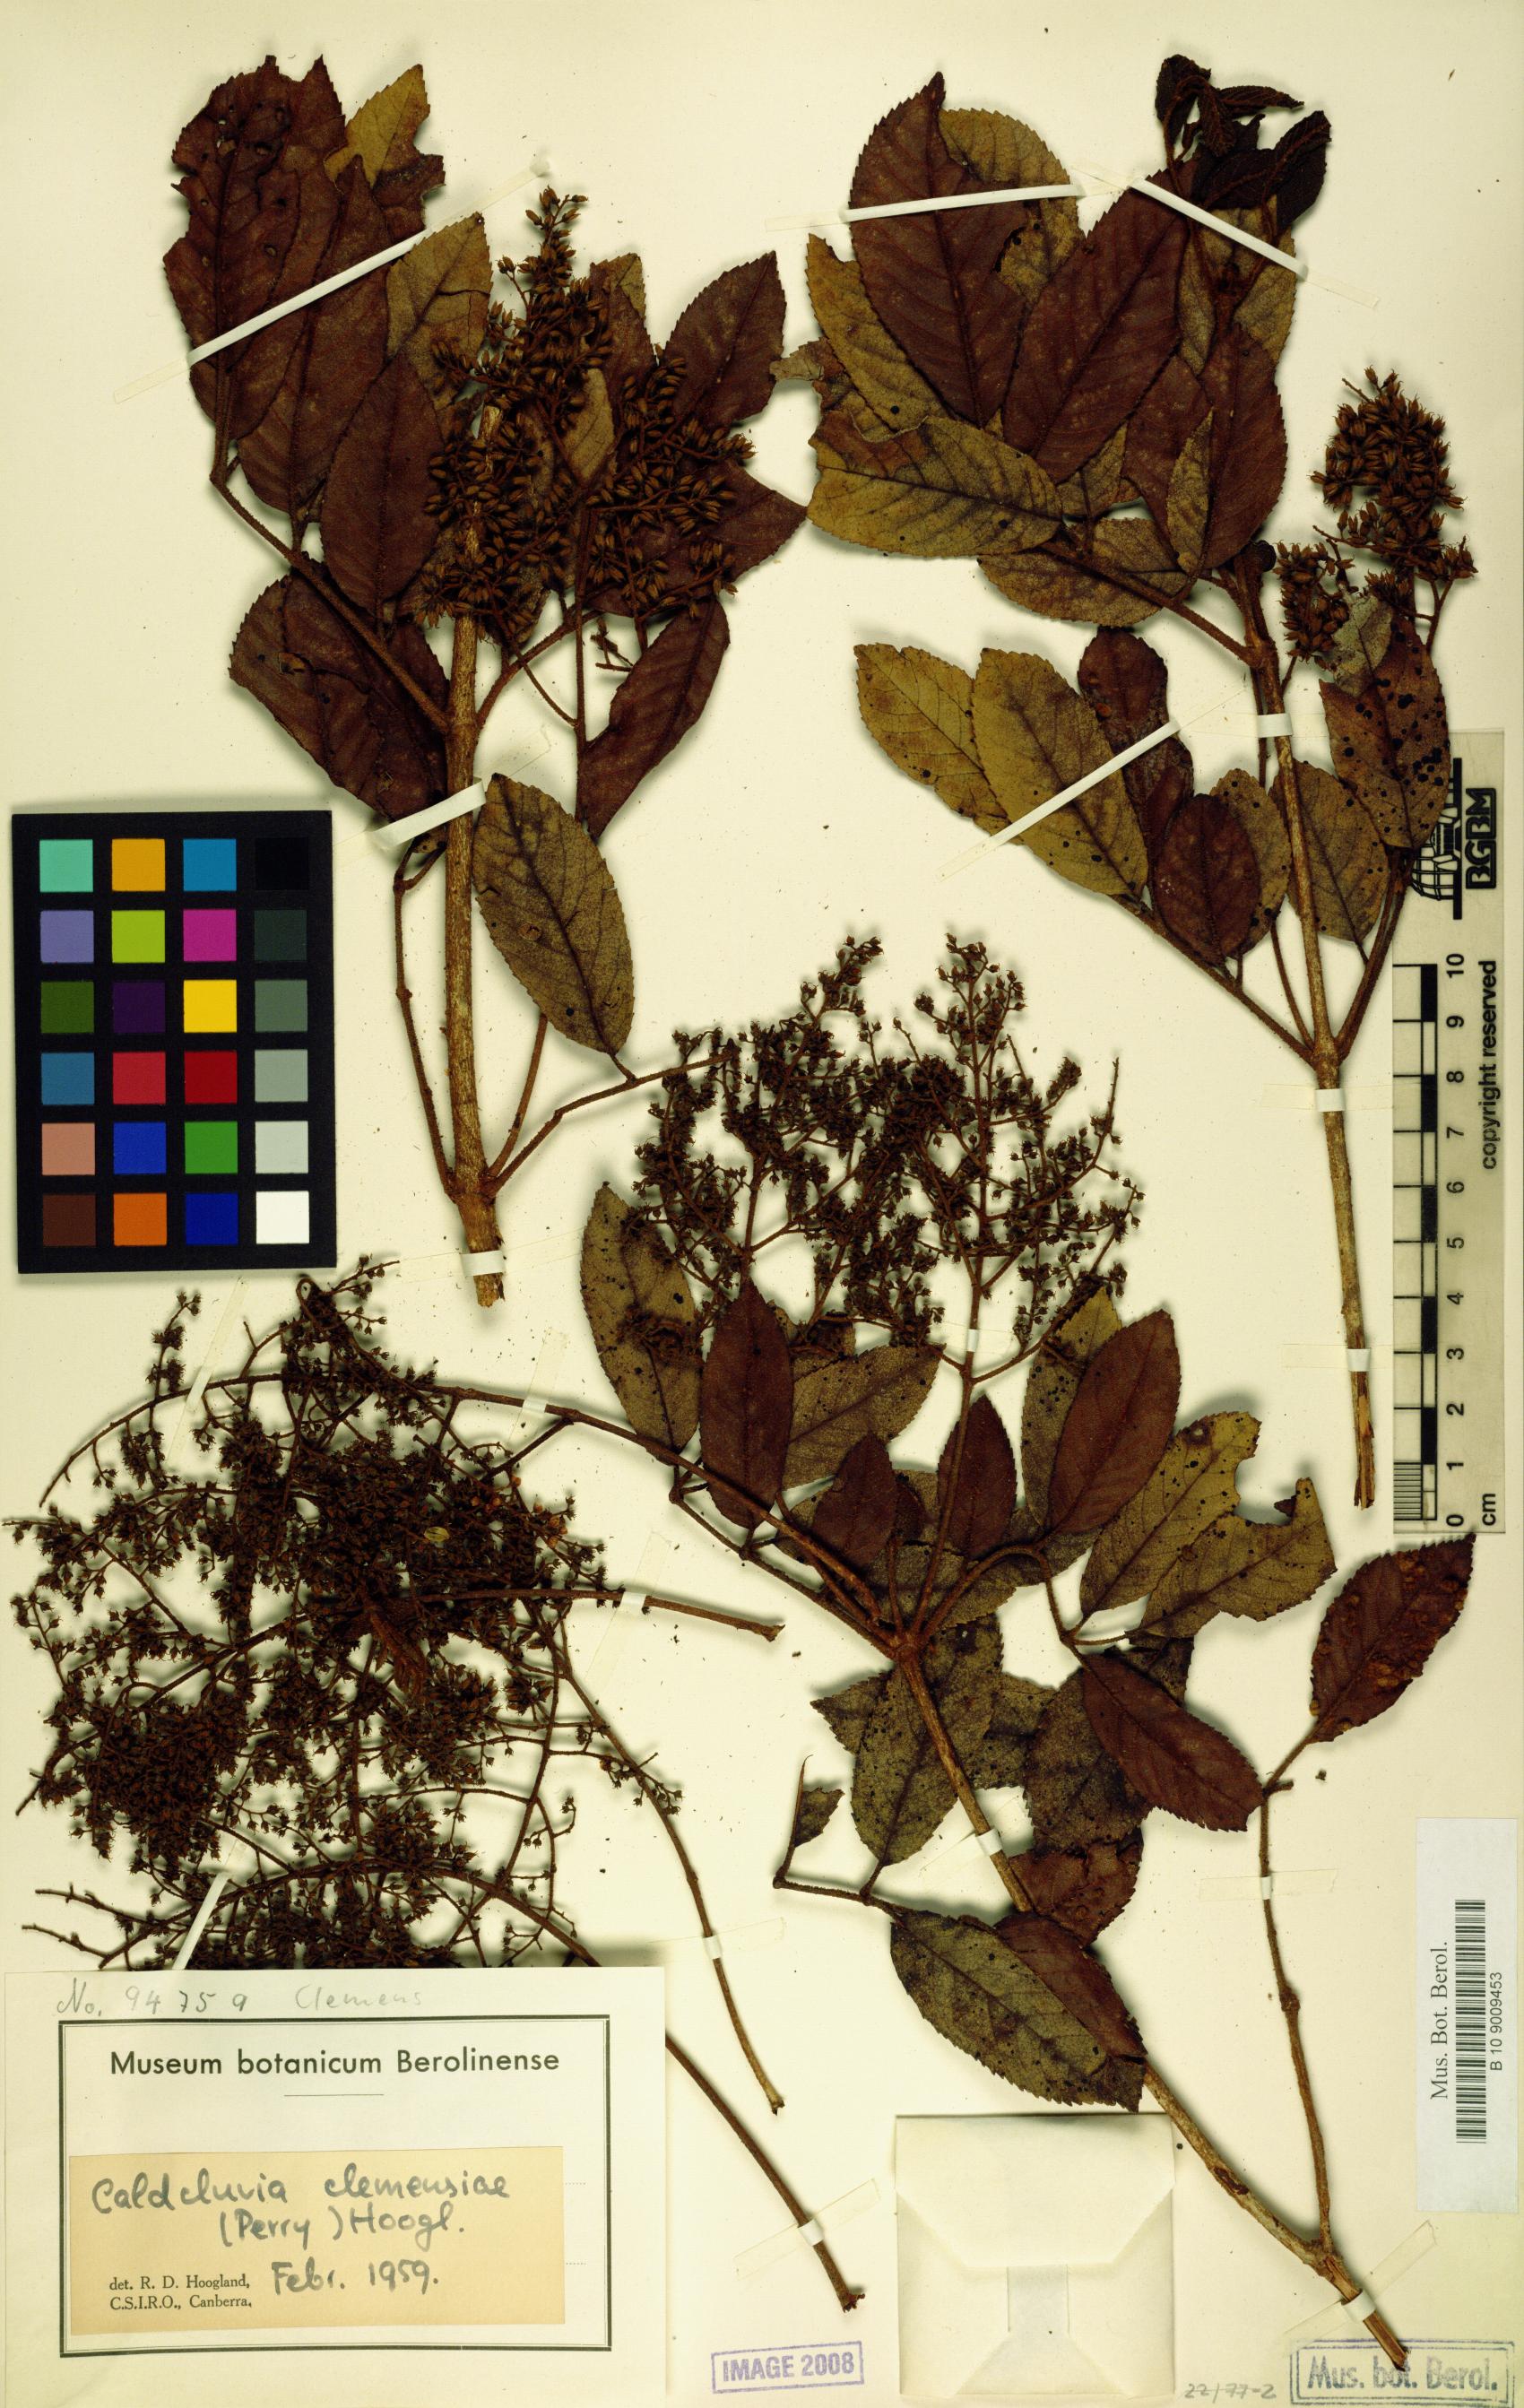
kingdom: Plantae
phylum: Tracheophyta
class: Magnoliopsida
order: Oxalidales
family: Cunoniaceae
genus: Ackama
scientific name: Ackama clemensiae
